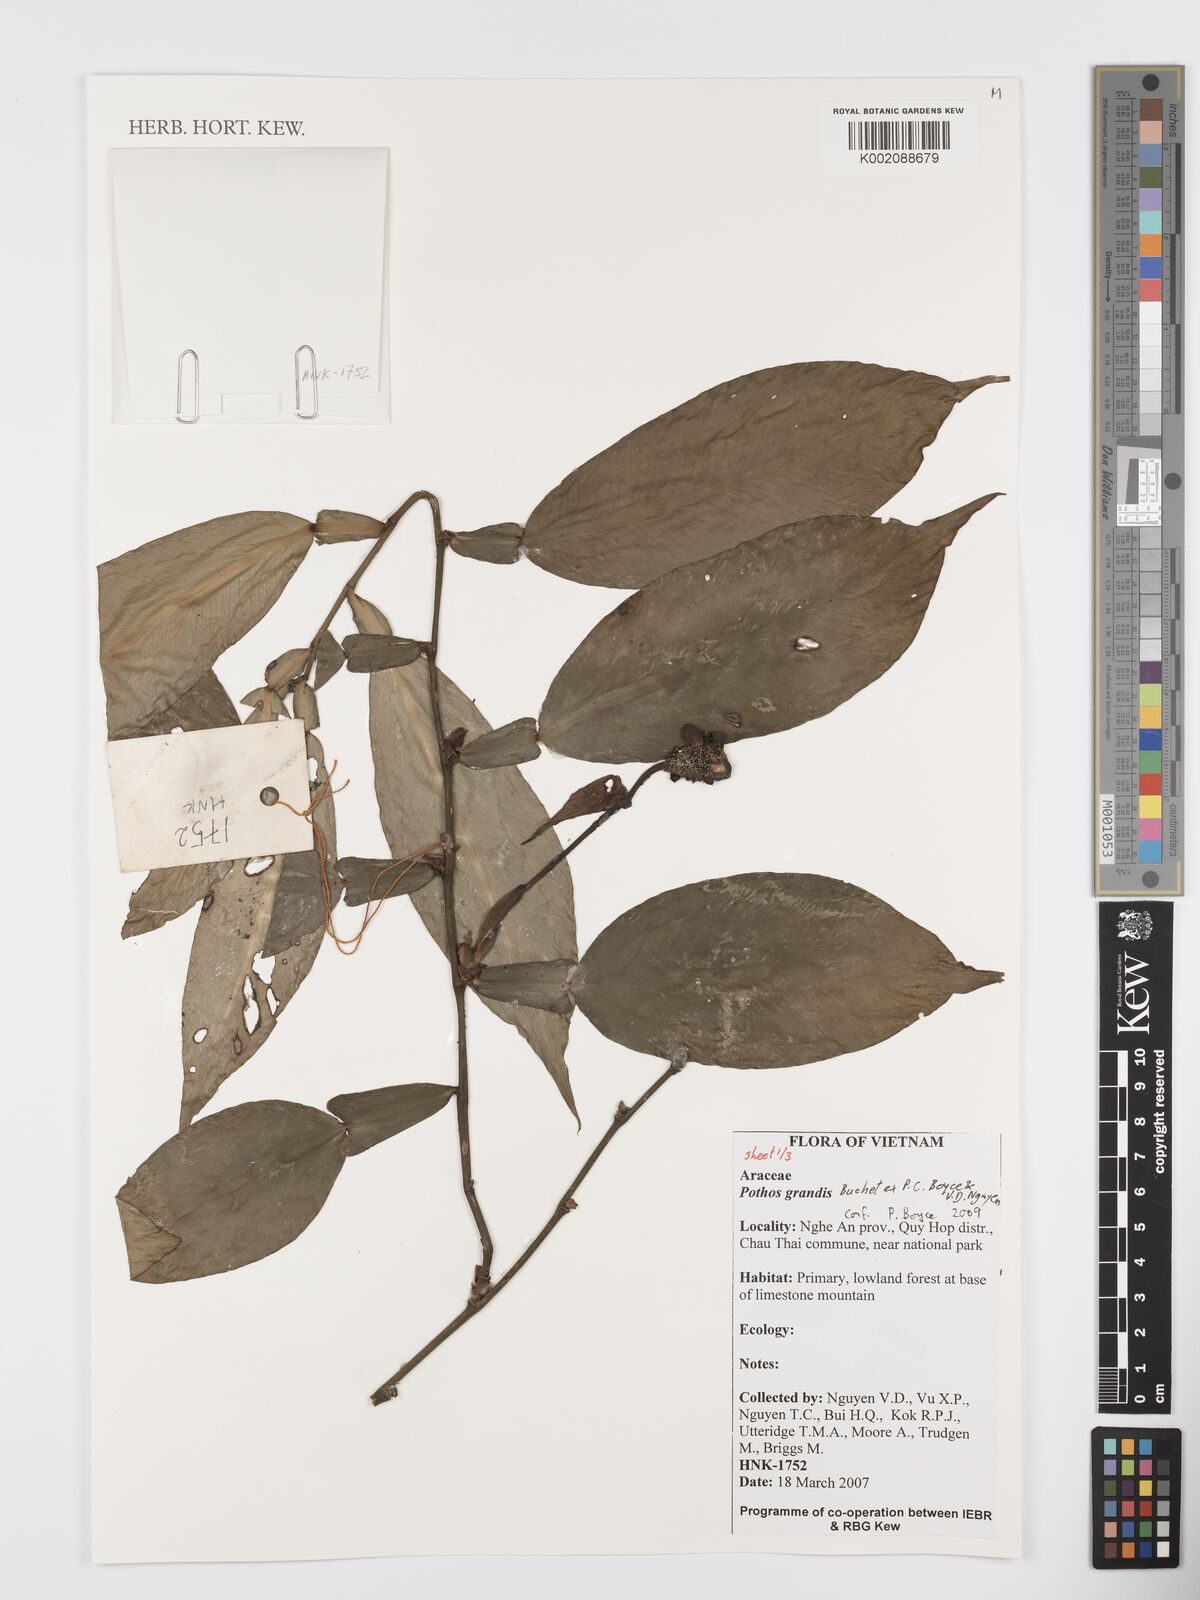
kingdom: Plantae
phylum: Tracheophyta
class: Liliopsida
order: Alismatales
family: Araceae
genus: Pothos
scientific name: Pothos grandis
